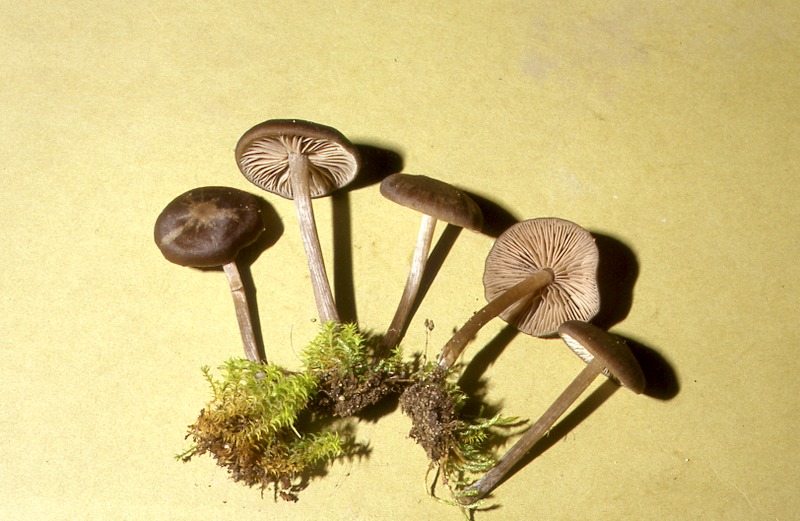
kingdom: Fungi
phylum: Basidiomycota
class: Agaricomycetes
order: Agaricales
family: Entolomataceae
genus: Entoloma
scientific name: Entoloma ortonii
